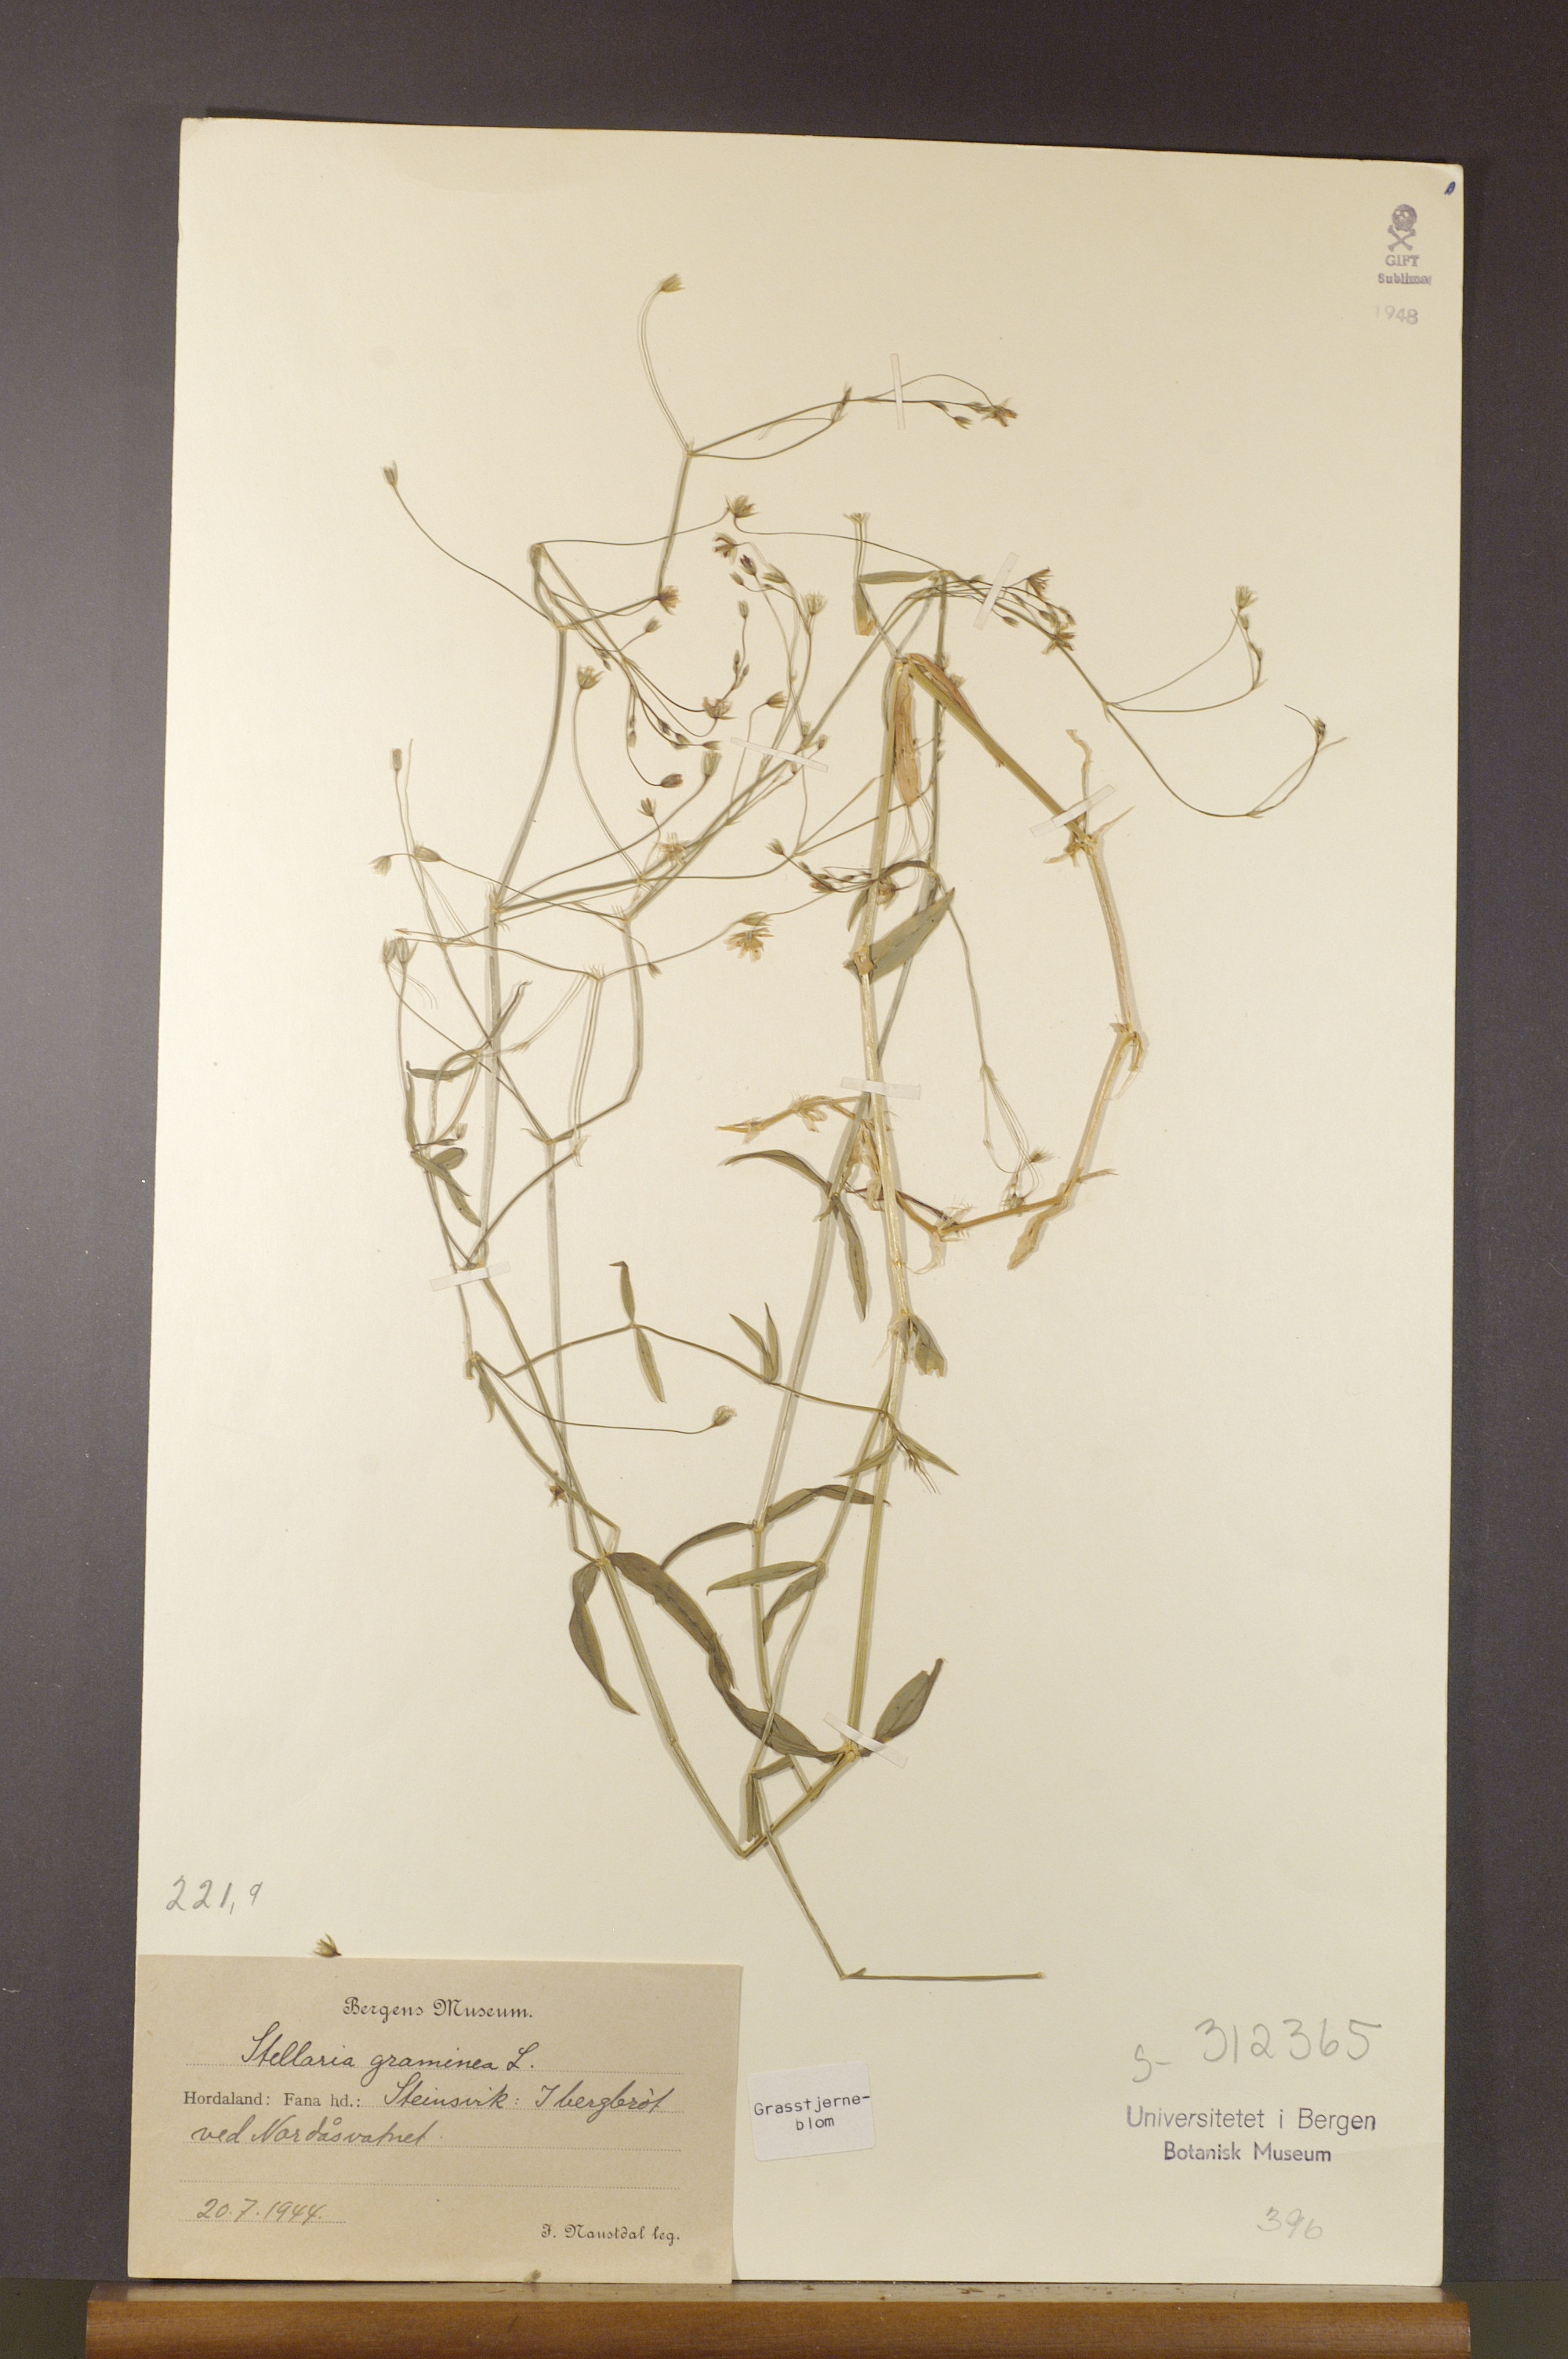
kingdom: Plantae
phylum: Tracheophyta
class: Magnoliopsida
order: Caryophyllales
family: Caryophyllaceae
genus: Stellaria
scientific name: Stellaria graminea
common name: Grass-like starwort
